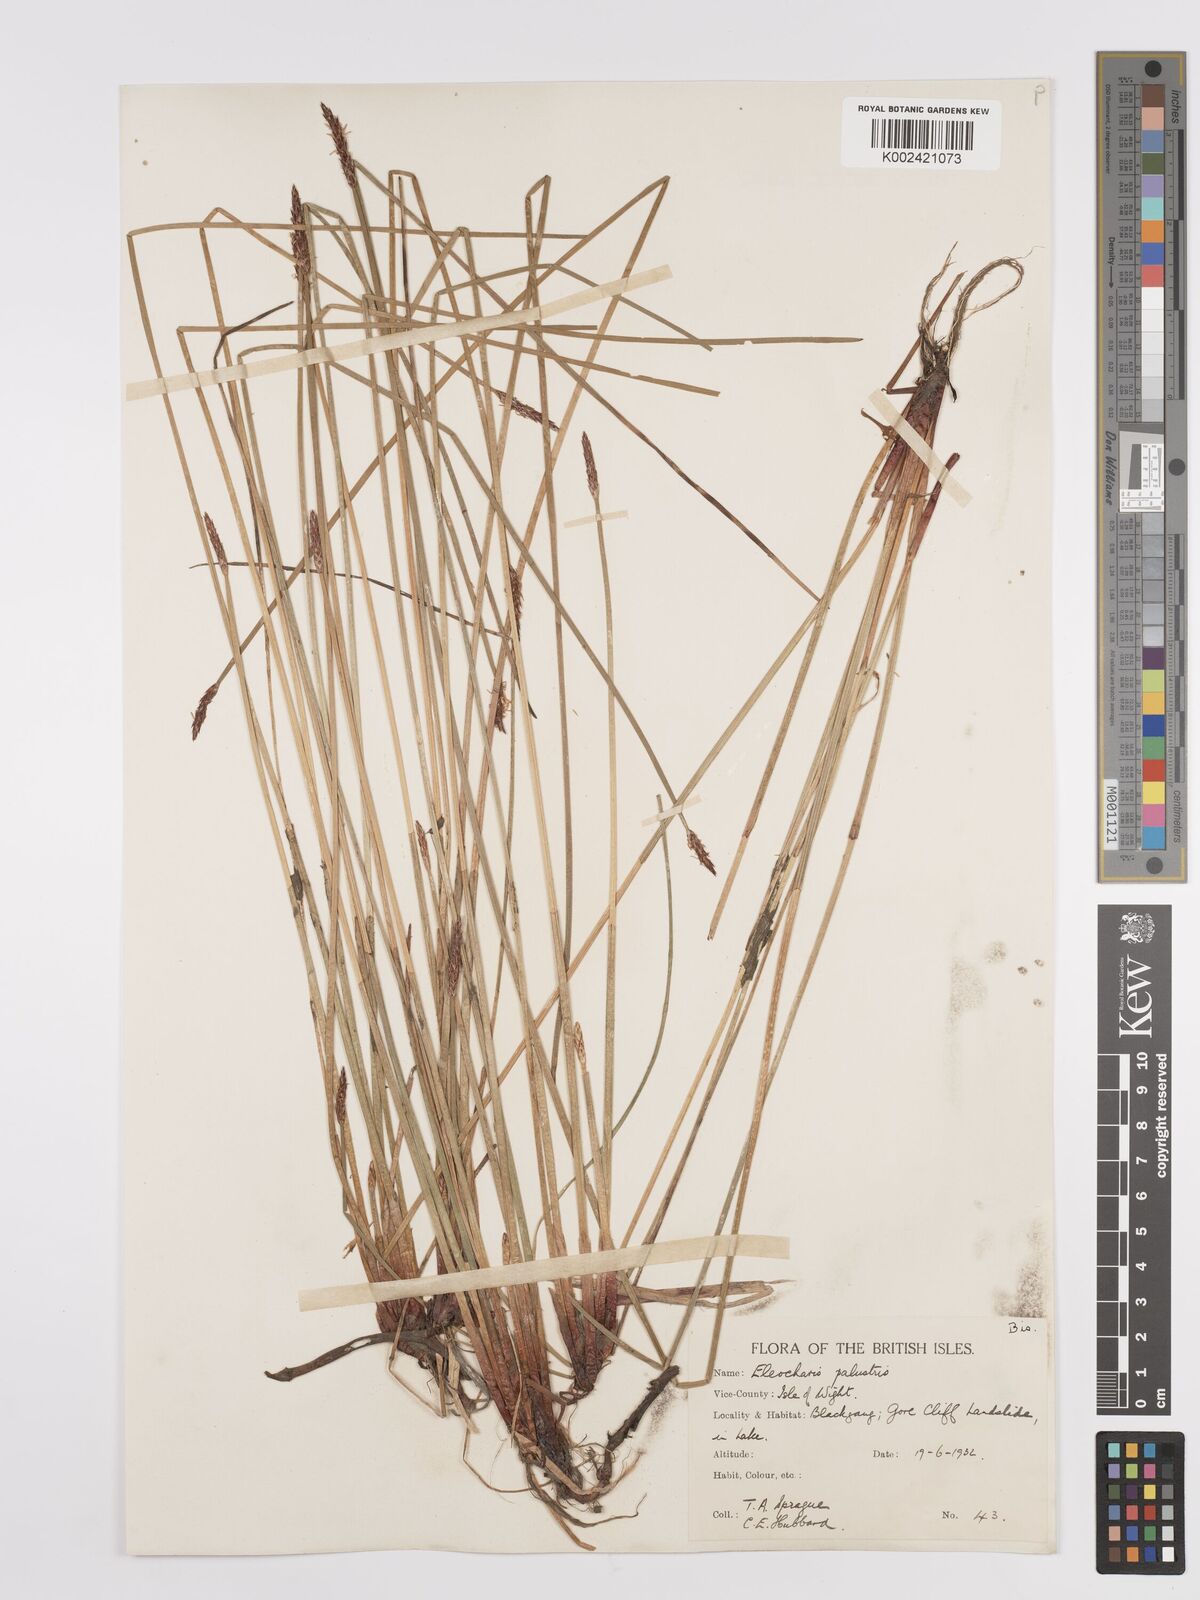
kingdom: Plantae
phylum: Tracheophyta
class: Liliopsida
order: Poales
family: Cyperaceae
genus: Eleocharis
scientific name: Eleocharis palustris
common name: Common spike-rush
